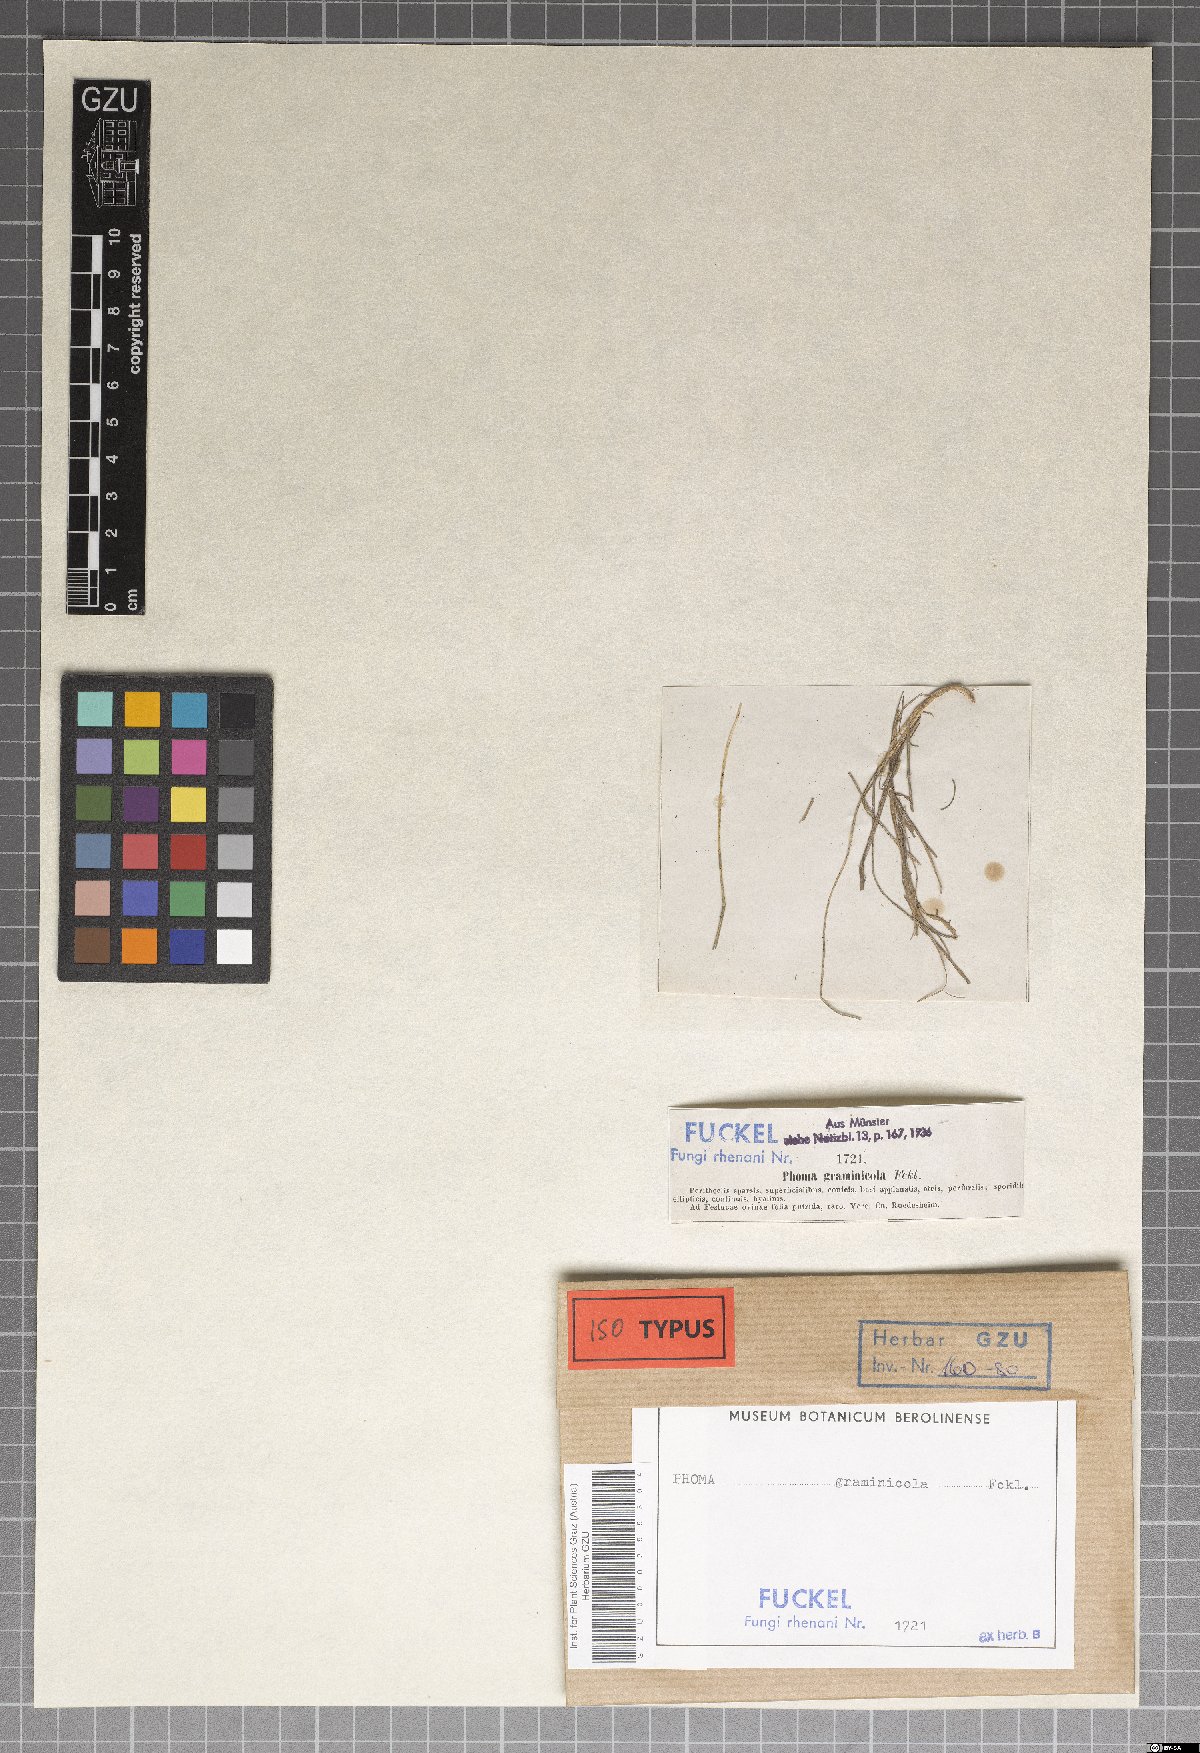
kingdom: Fungi
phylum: Ascomycota
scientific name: Ascomycota
